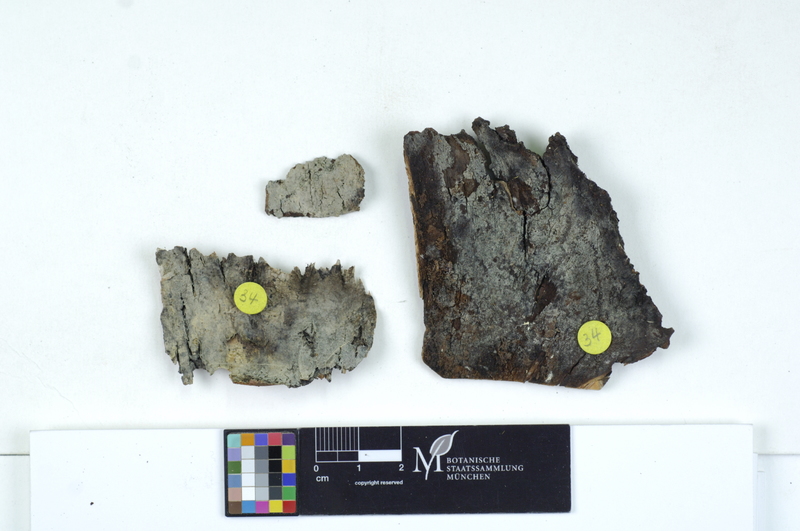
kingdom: Plantae
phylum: Tracheophyta
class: Magnoliopsida
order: Fagales
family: Betulaceae
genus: Betula
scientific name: Betula
